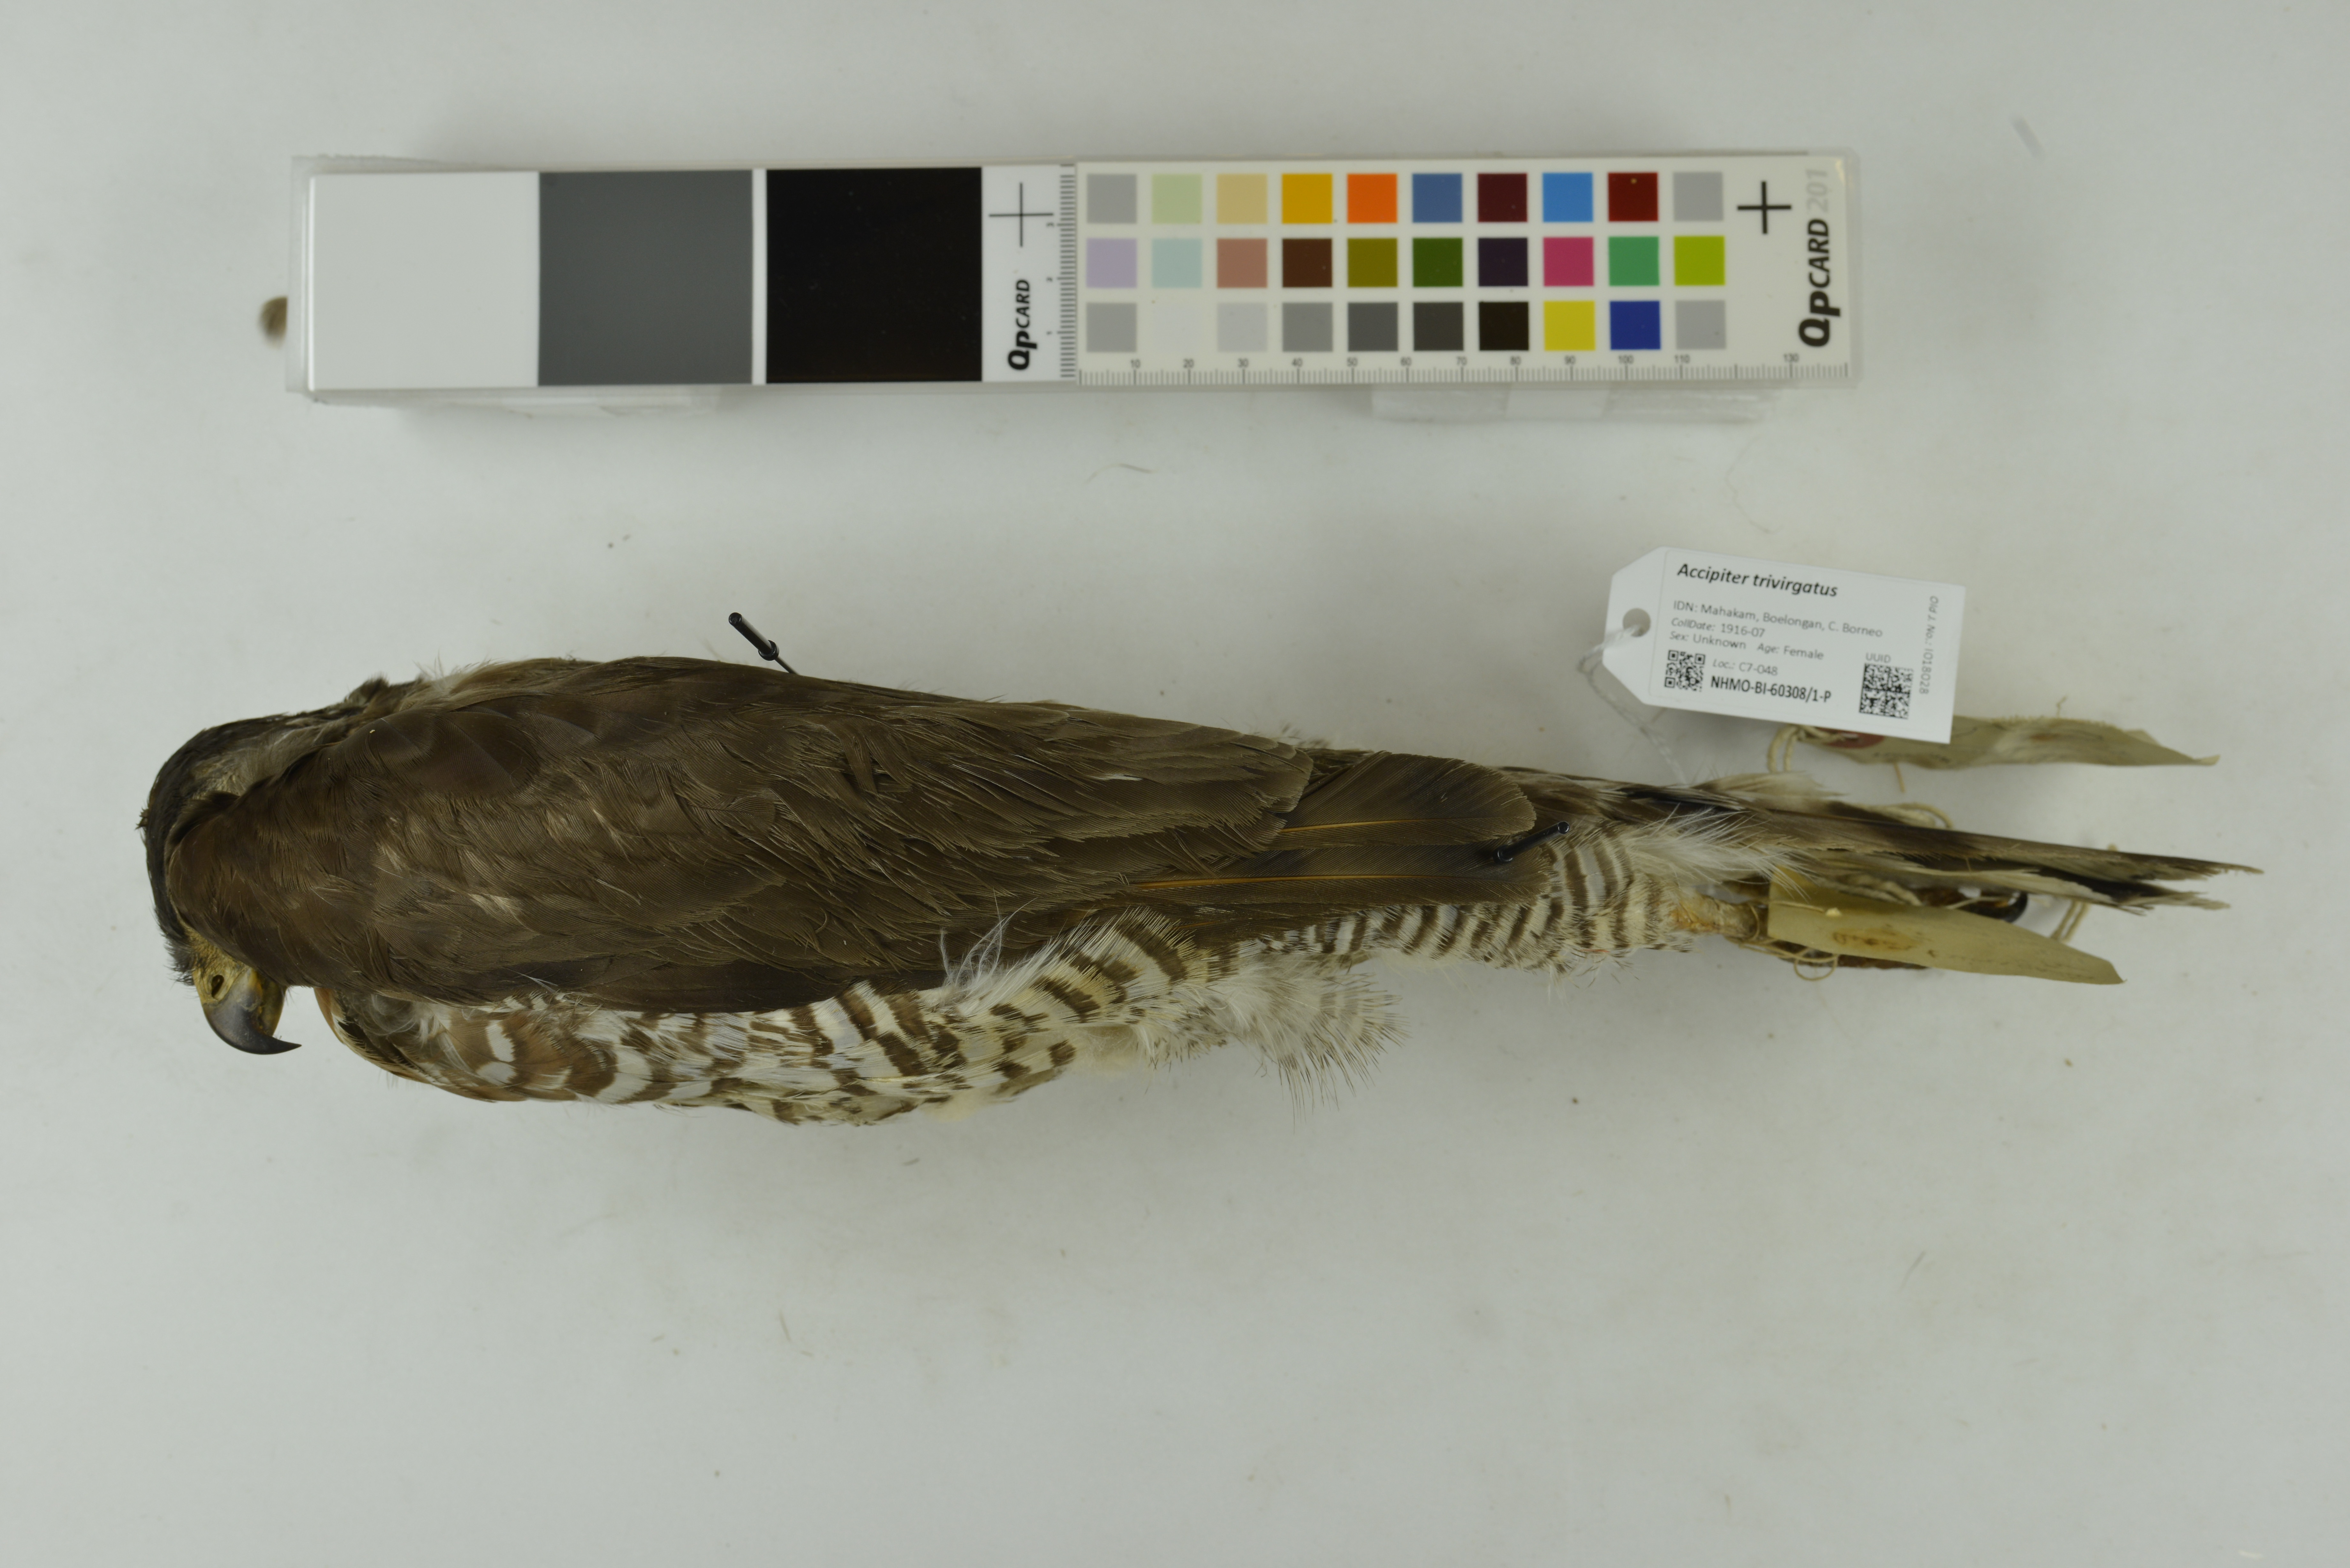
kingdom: Animalia
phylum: Chordata
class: Aves
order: Accipitriformes
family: Accipitridae
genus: Accipiter
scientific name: Accipiter trivirgatus
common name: Crested goshawk
